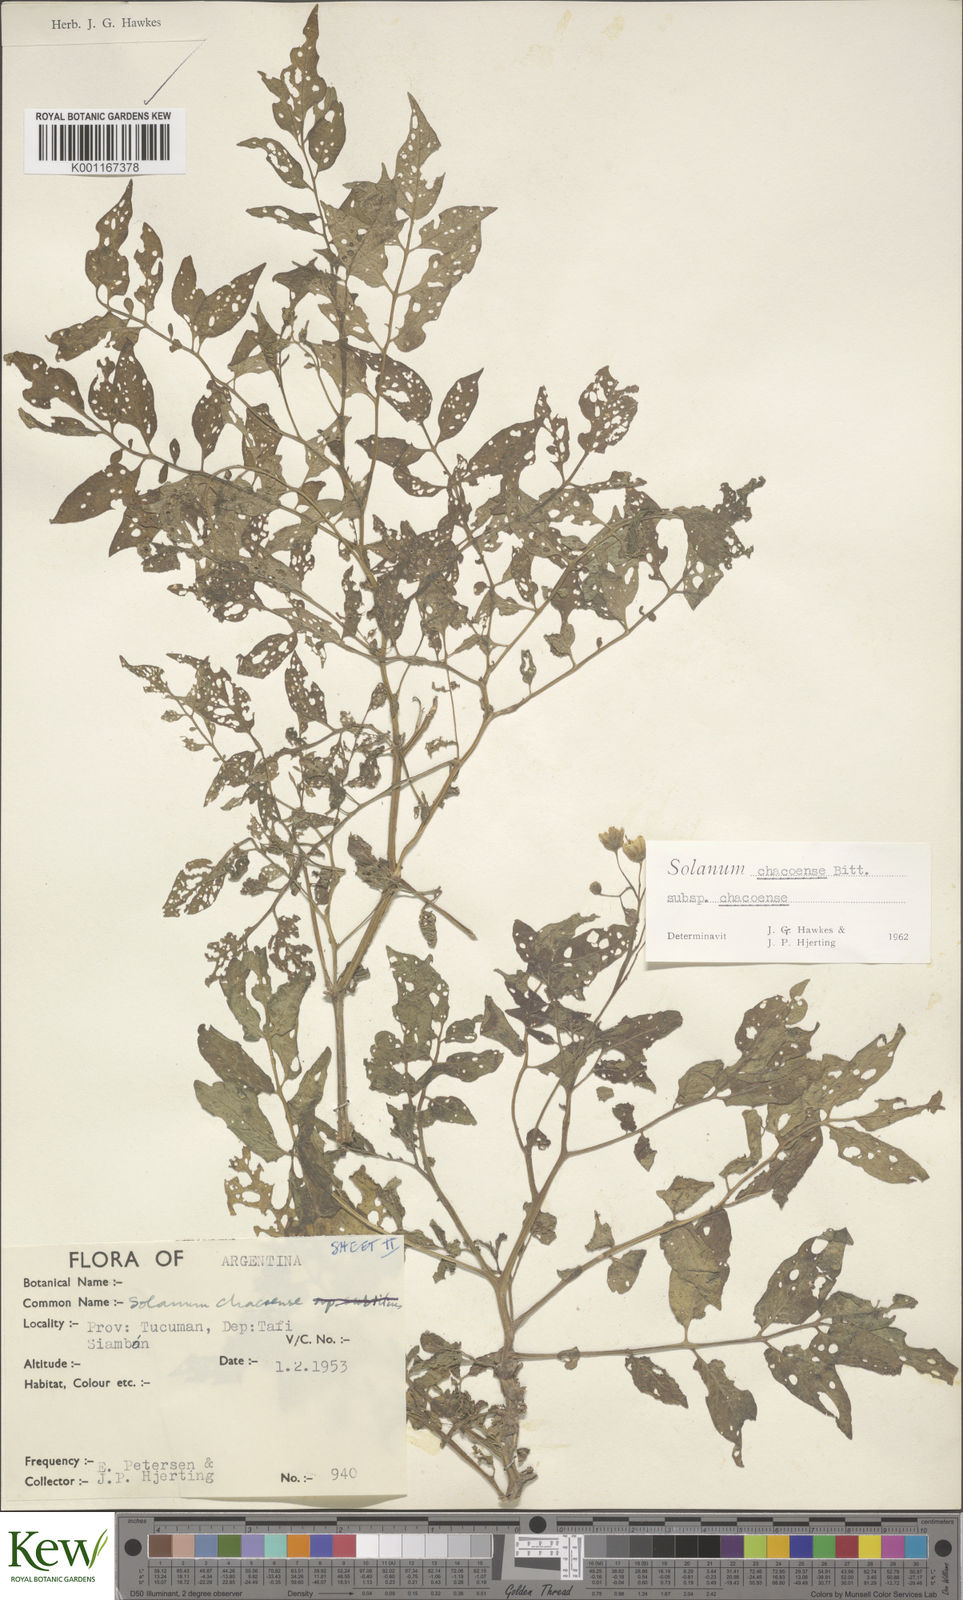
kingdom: Plantae
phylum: Tracheophyta
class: Magnoliopsida
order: Solanales
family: Solanaceae
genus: Solanum
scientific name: Solanum chacoense
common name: Chaco potato
